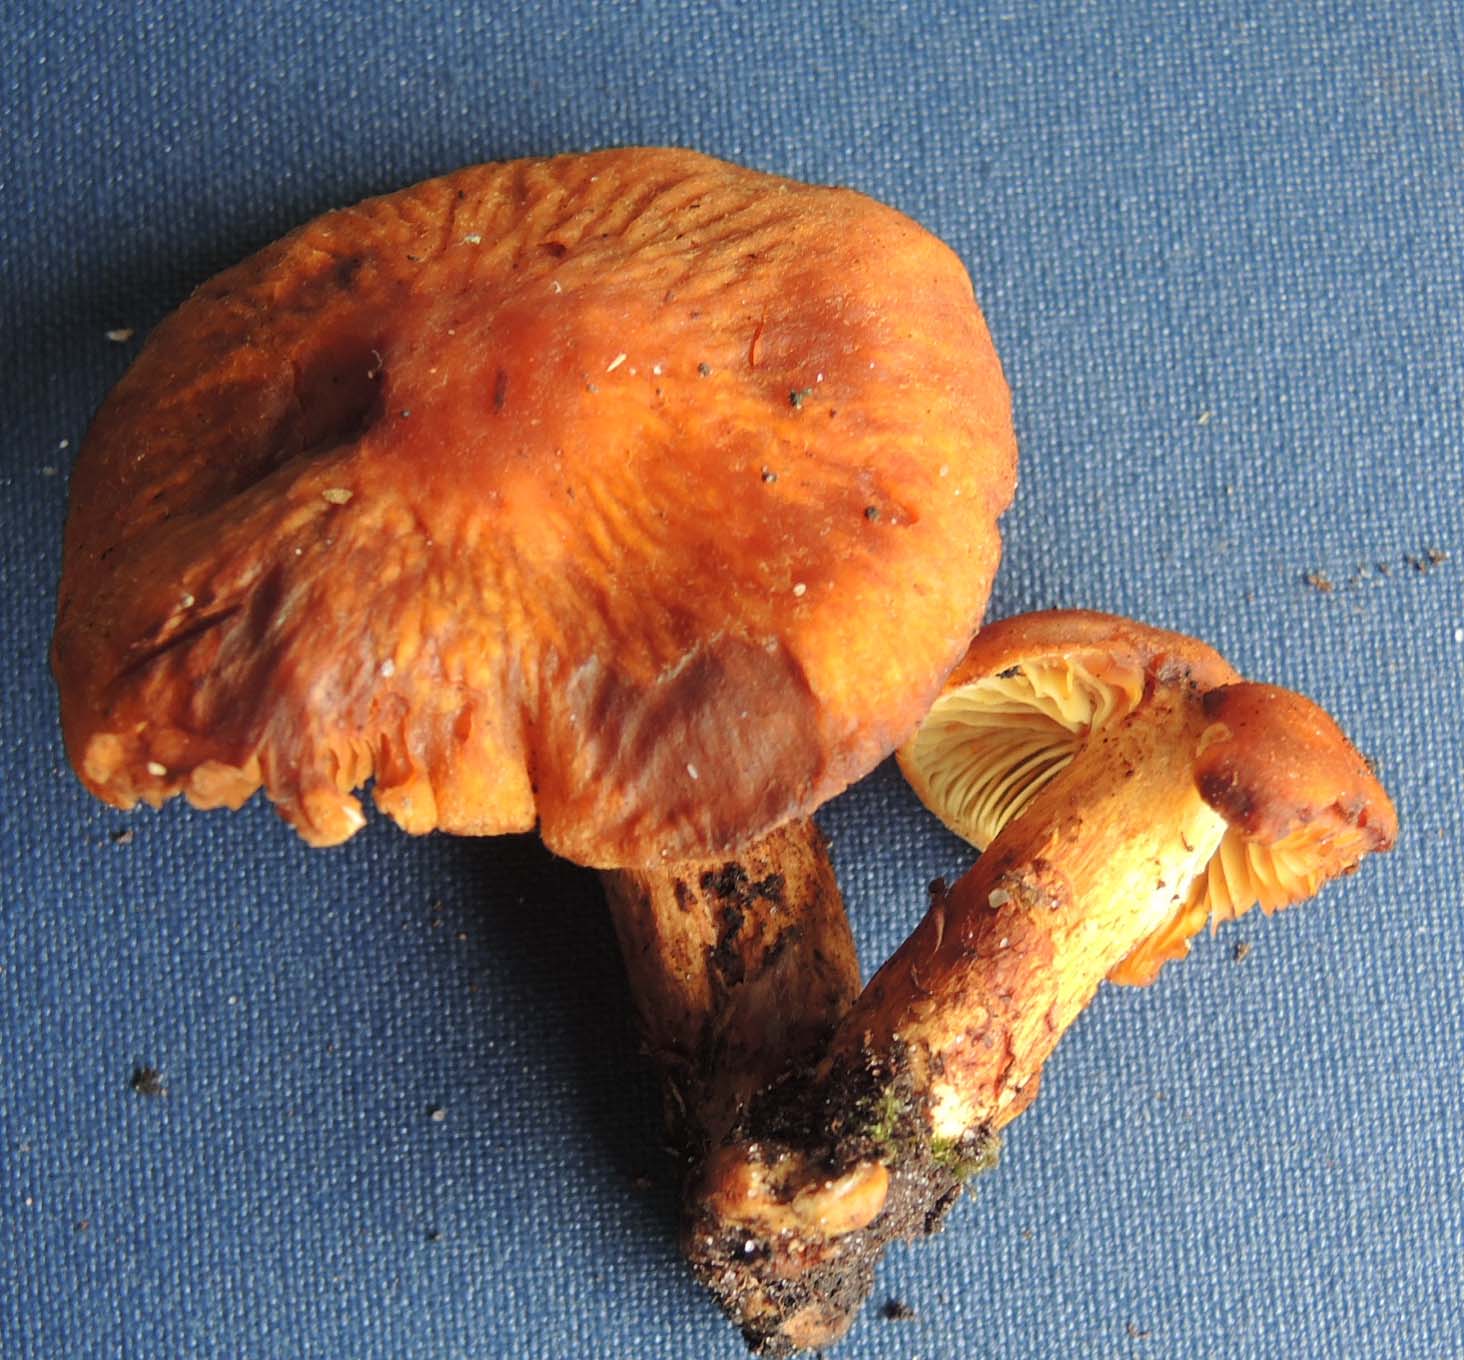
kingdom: Fungi
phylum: Basidiomycota
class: Agaricomycetes
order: Agaricales
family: Cortinariaceae
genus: Aureonarius
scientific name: Aureonarius tofaceus
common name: ravgul slørhat
